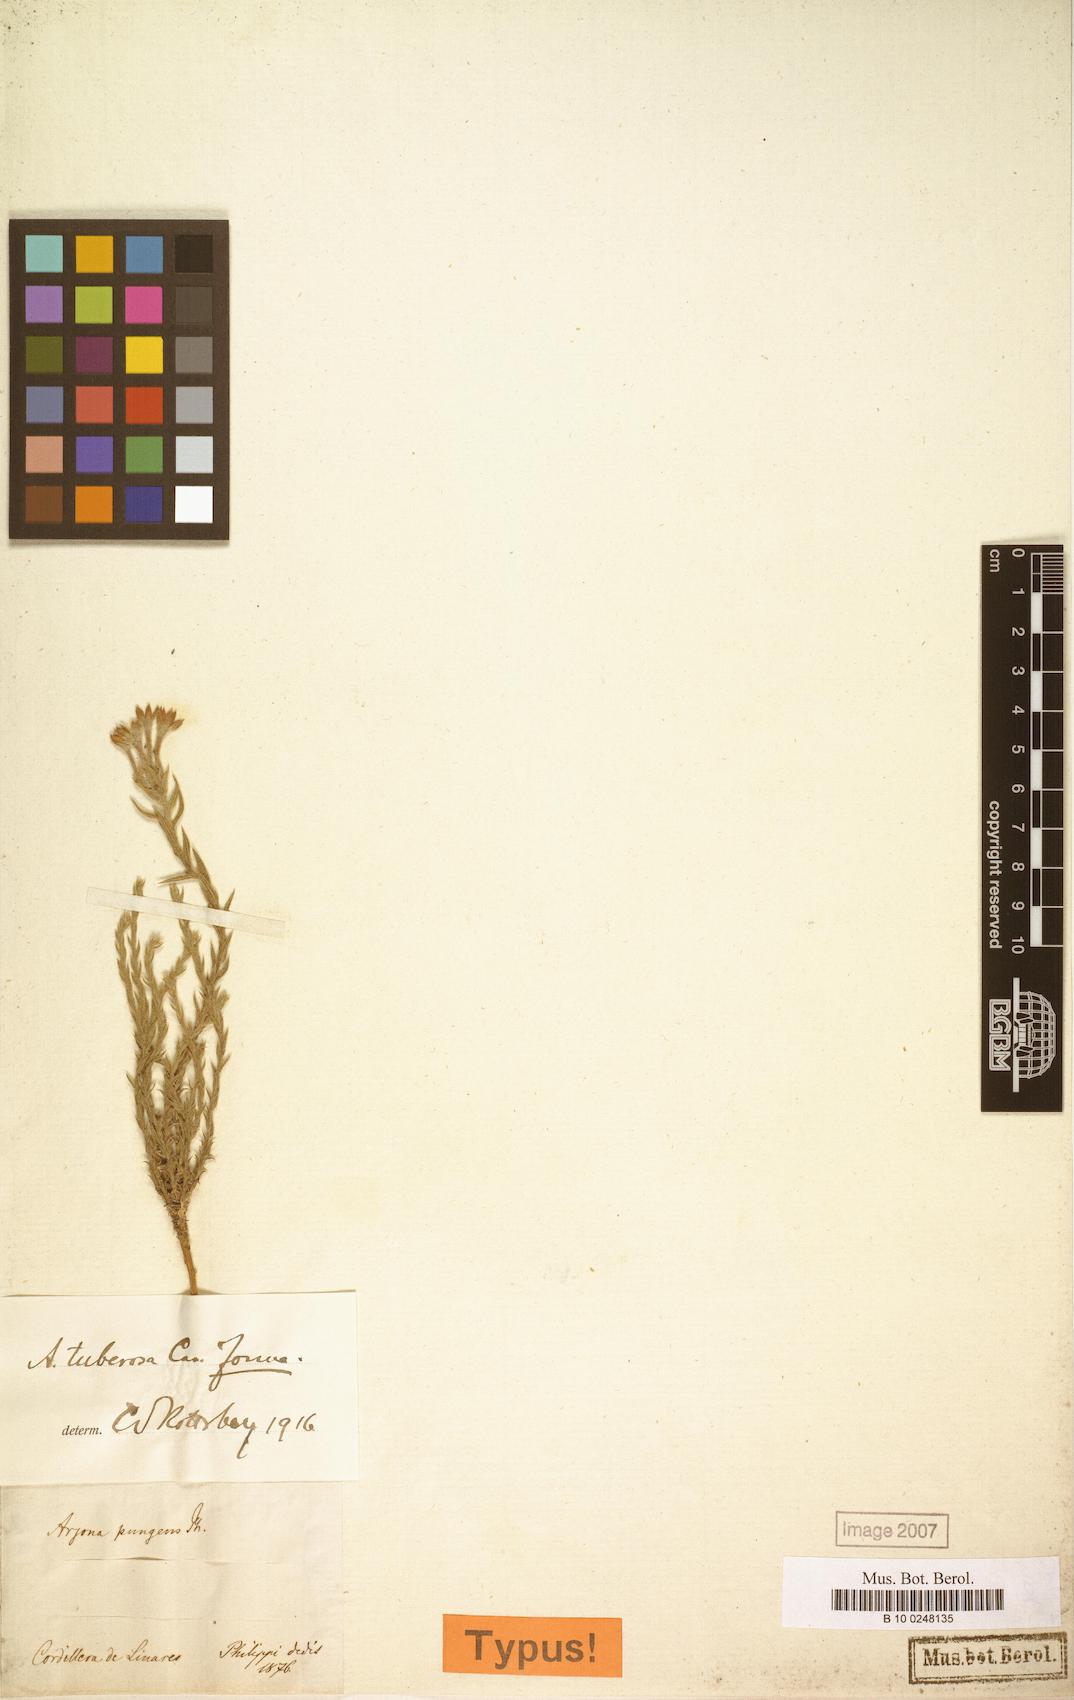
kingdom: Plantae
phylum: Tracheophyta
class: Magnoliopsida
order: Santalales
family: Schoepfiaceae
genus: Arjona
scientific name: Arjona tuberosa
